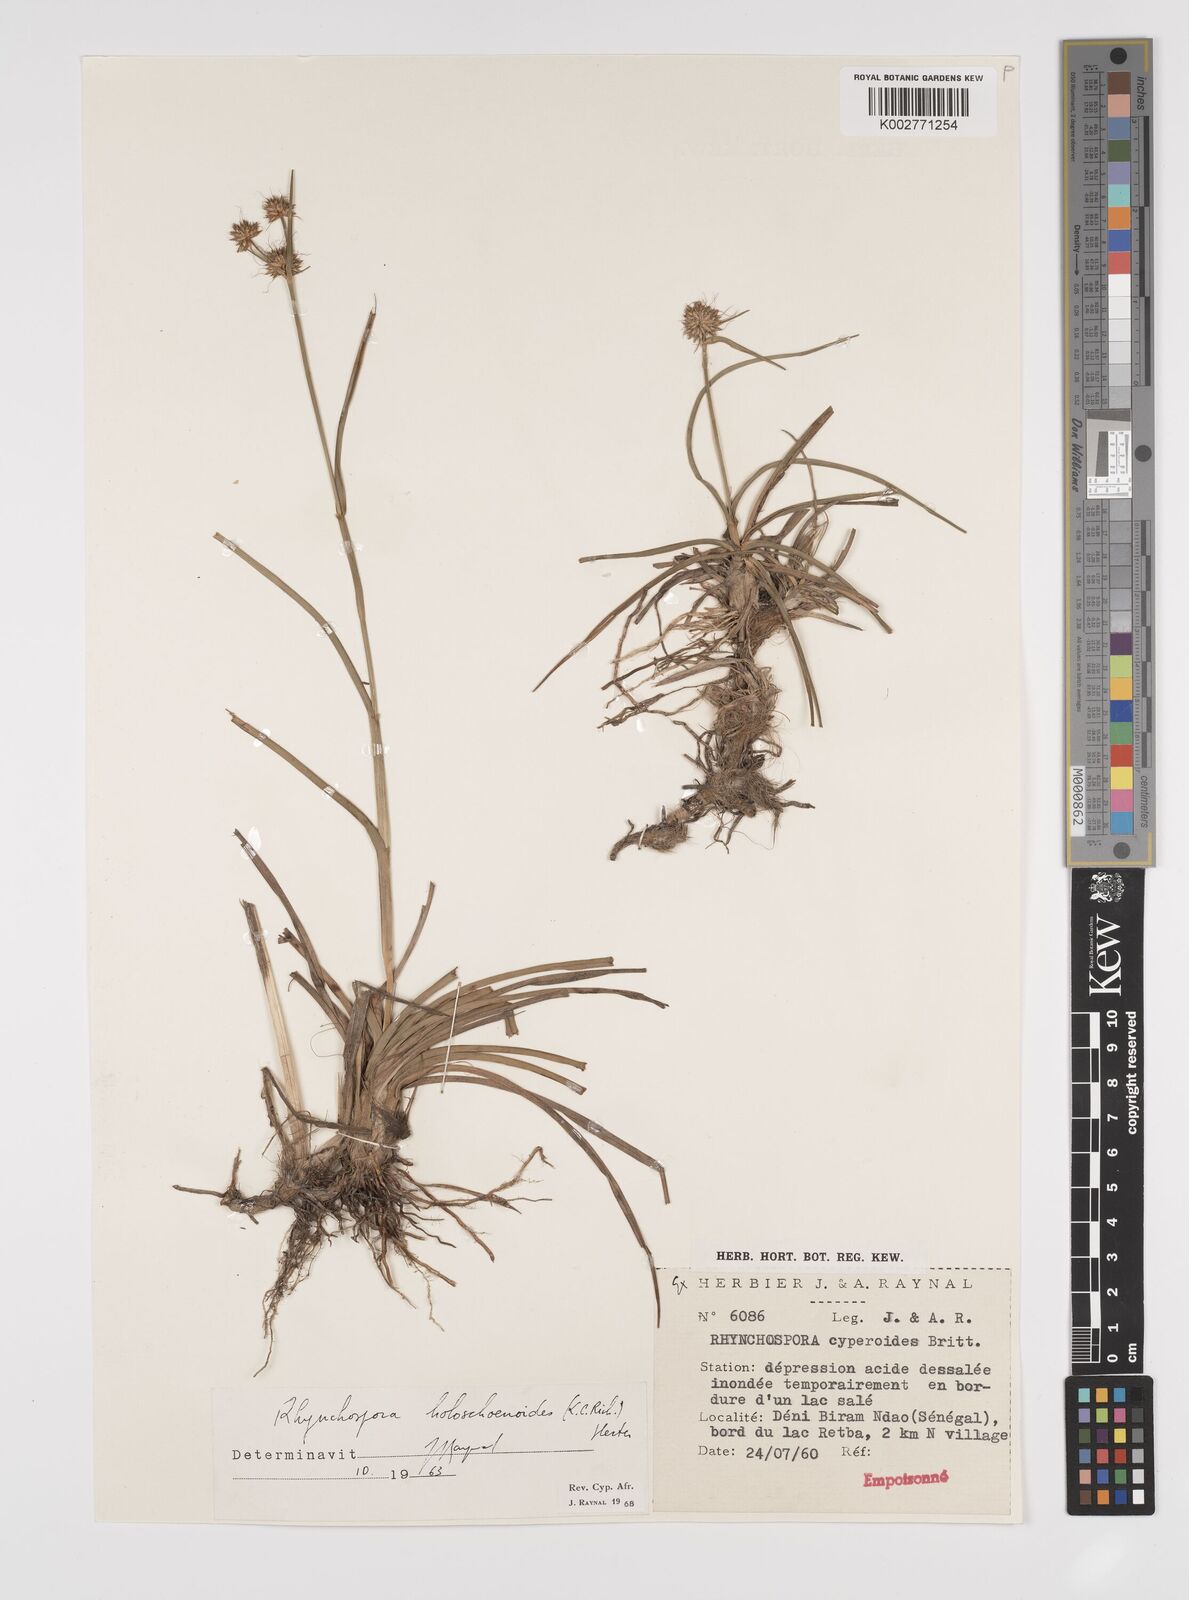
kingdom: Plantae
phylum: Tracheophyta
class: Liliopsida
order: Poales
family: Cyperaceae
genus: Rhynchospora
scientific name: Rhynchospora holoschoenoides
